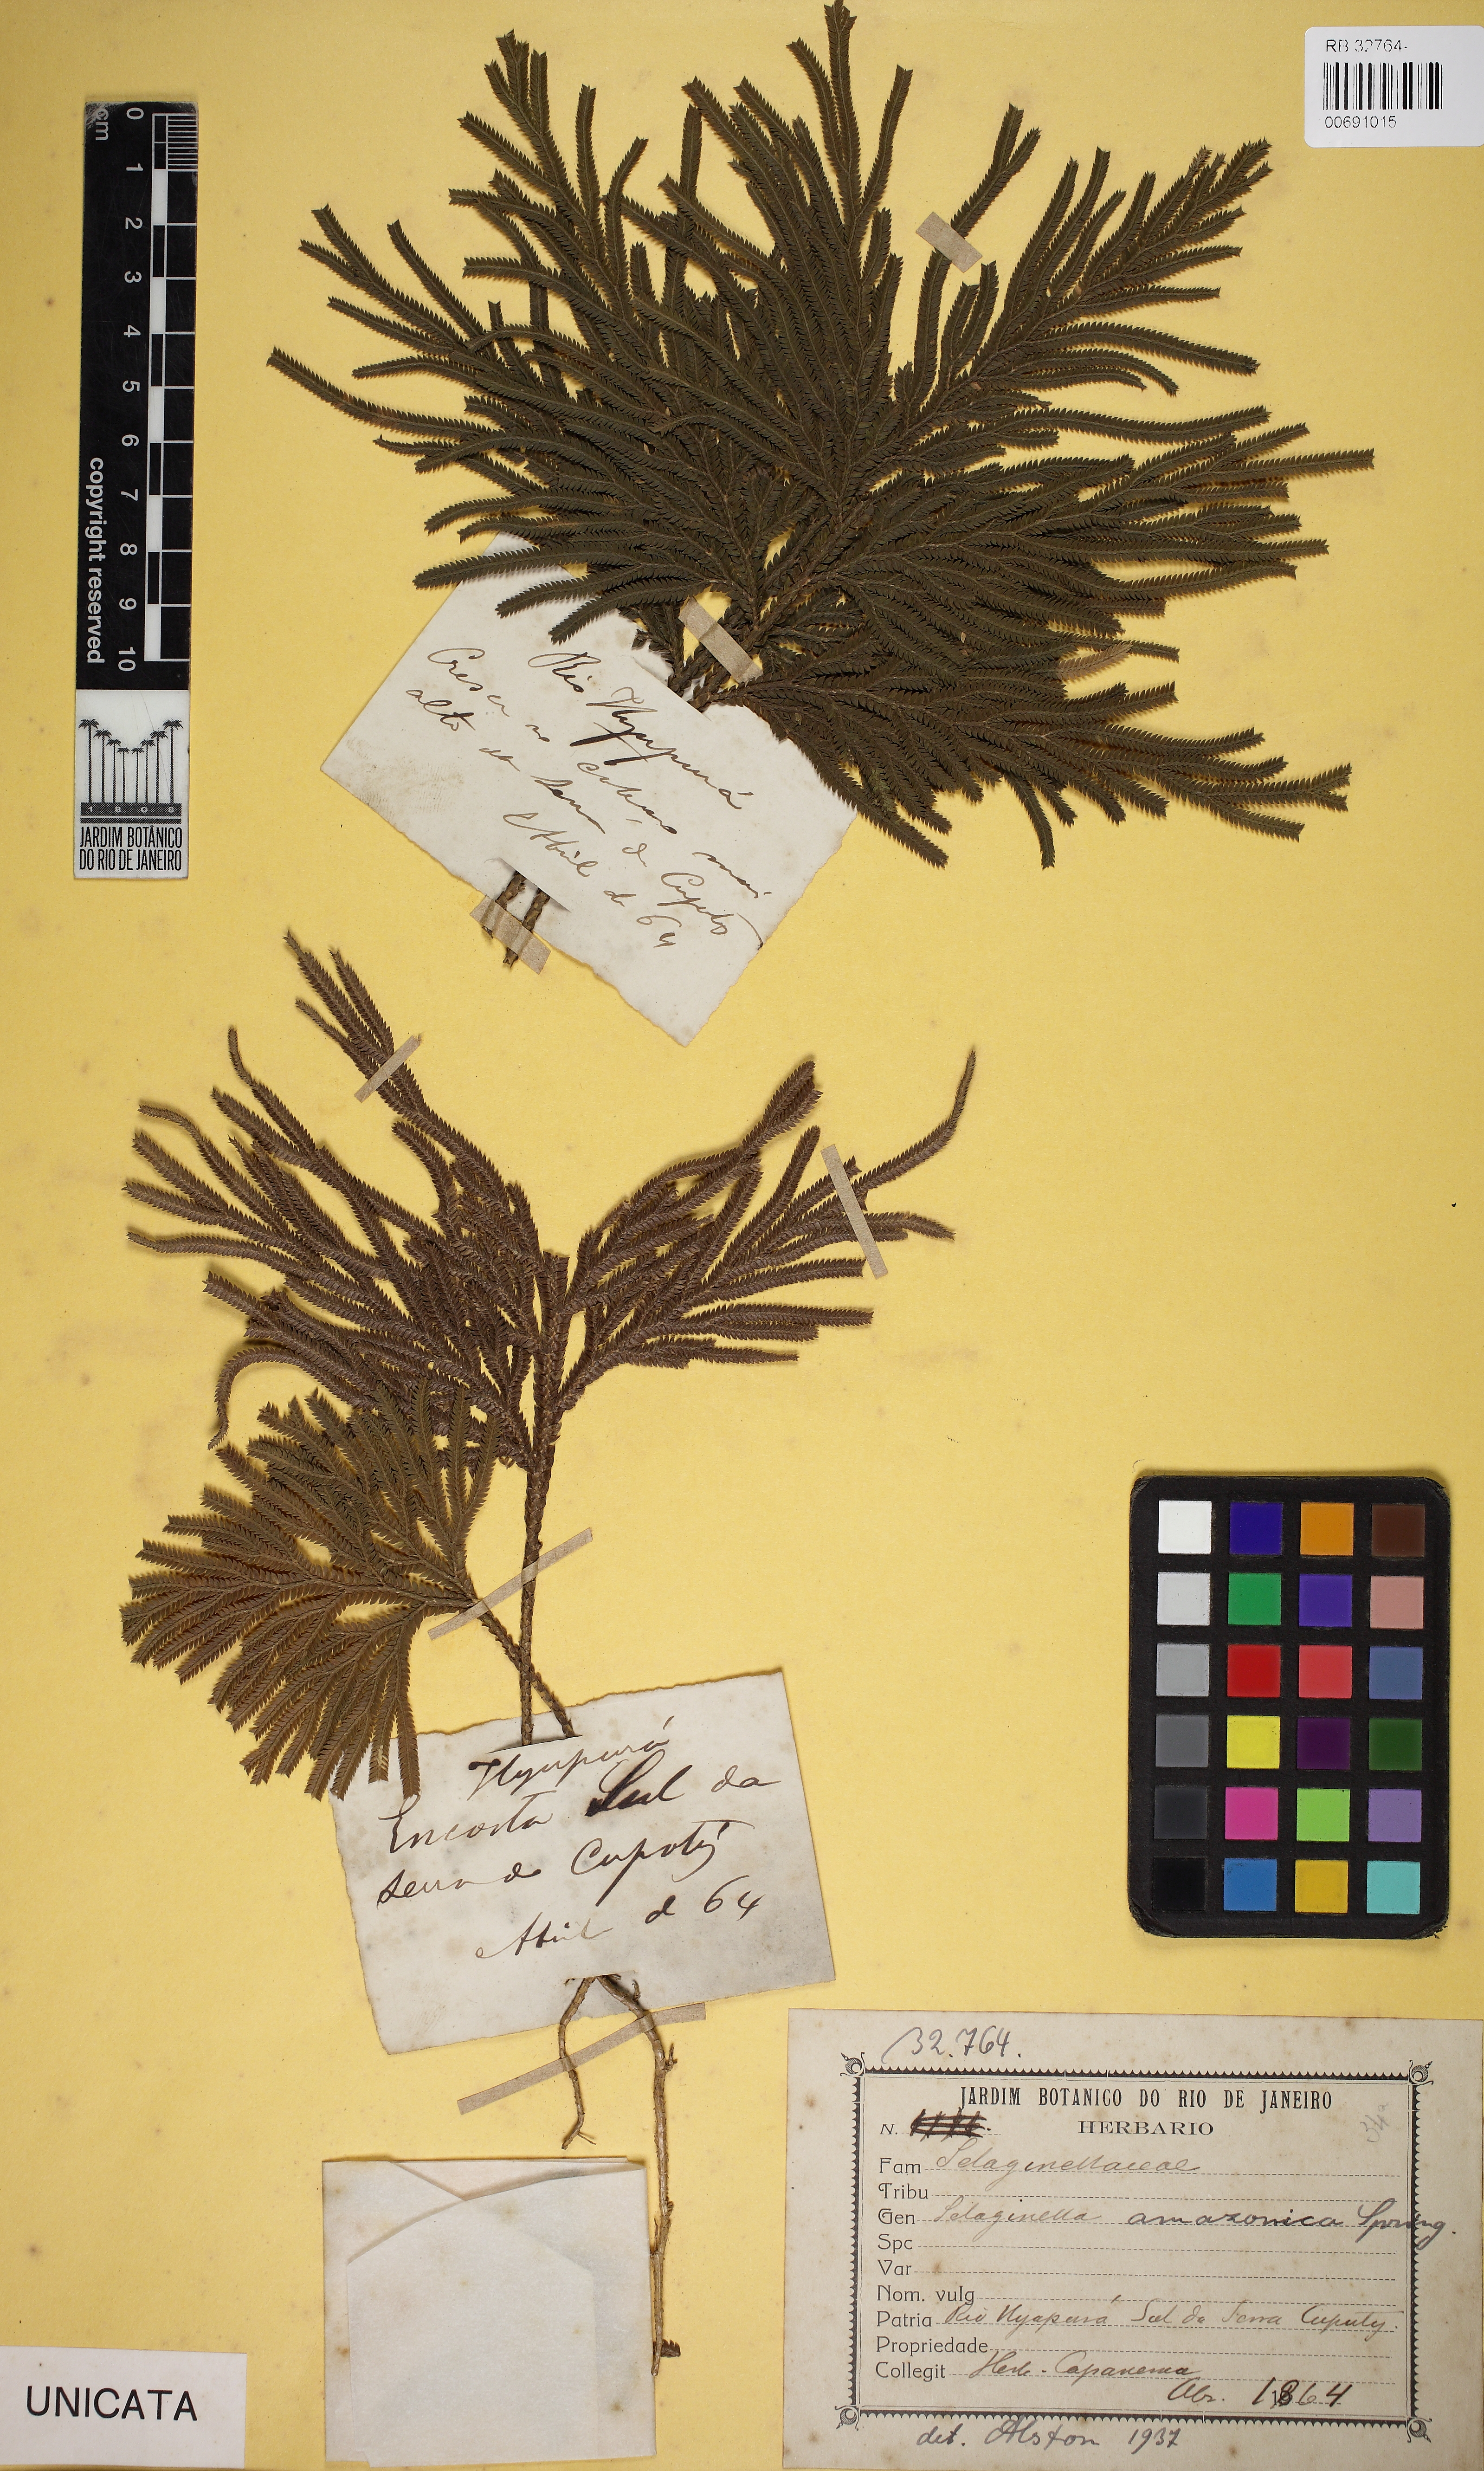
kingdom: Plantae
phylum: Tracheophyta
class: Lycopodiopsida
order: Selaginellales
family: Selaginellaceae
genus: Selaginella
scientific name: Selaginella amazonica
